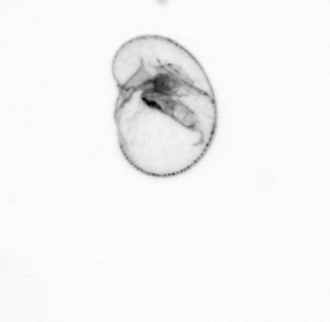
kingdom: Chromista
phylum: Myzozoa
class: Dinophyceae
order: Noctilucales
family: Noctilucaceae
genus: Noctiluca
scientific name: Noctiluca scintillans
